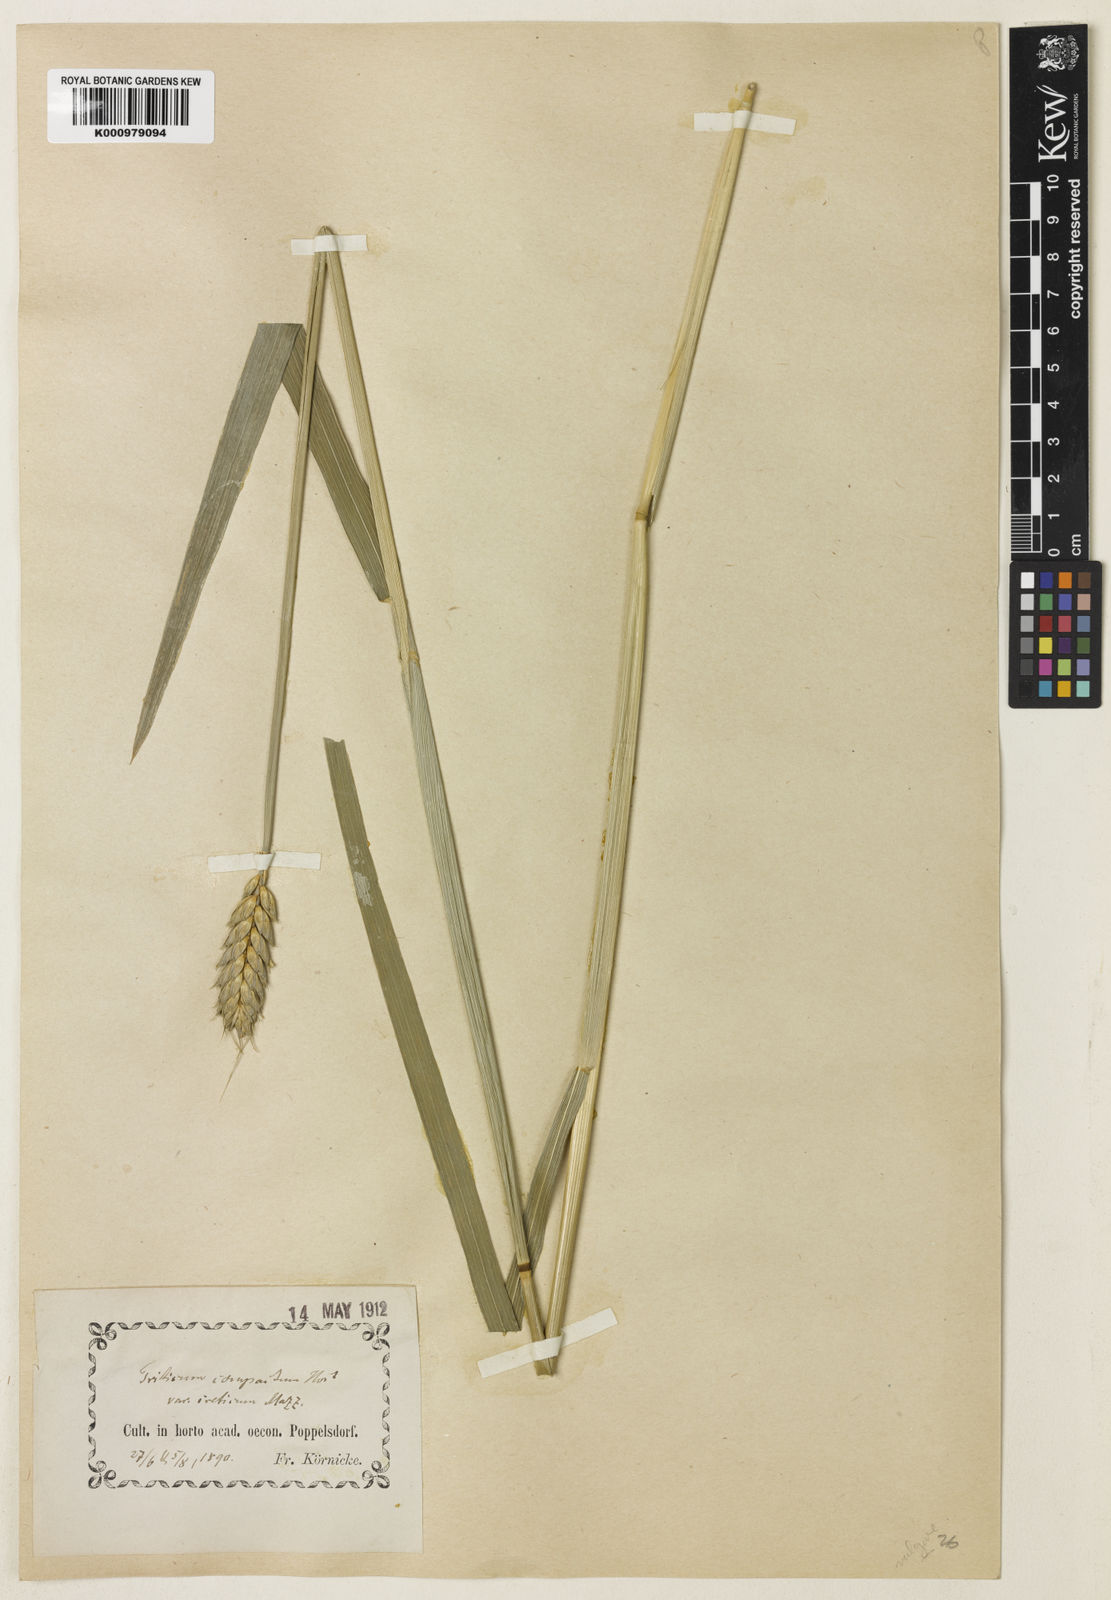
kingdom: Plantae
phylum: Tracheophyta
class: Liliopsida
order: Poales
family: Poaceae
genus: Triticum
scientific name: Triticum aestivum
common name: Common wheat
